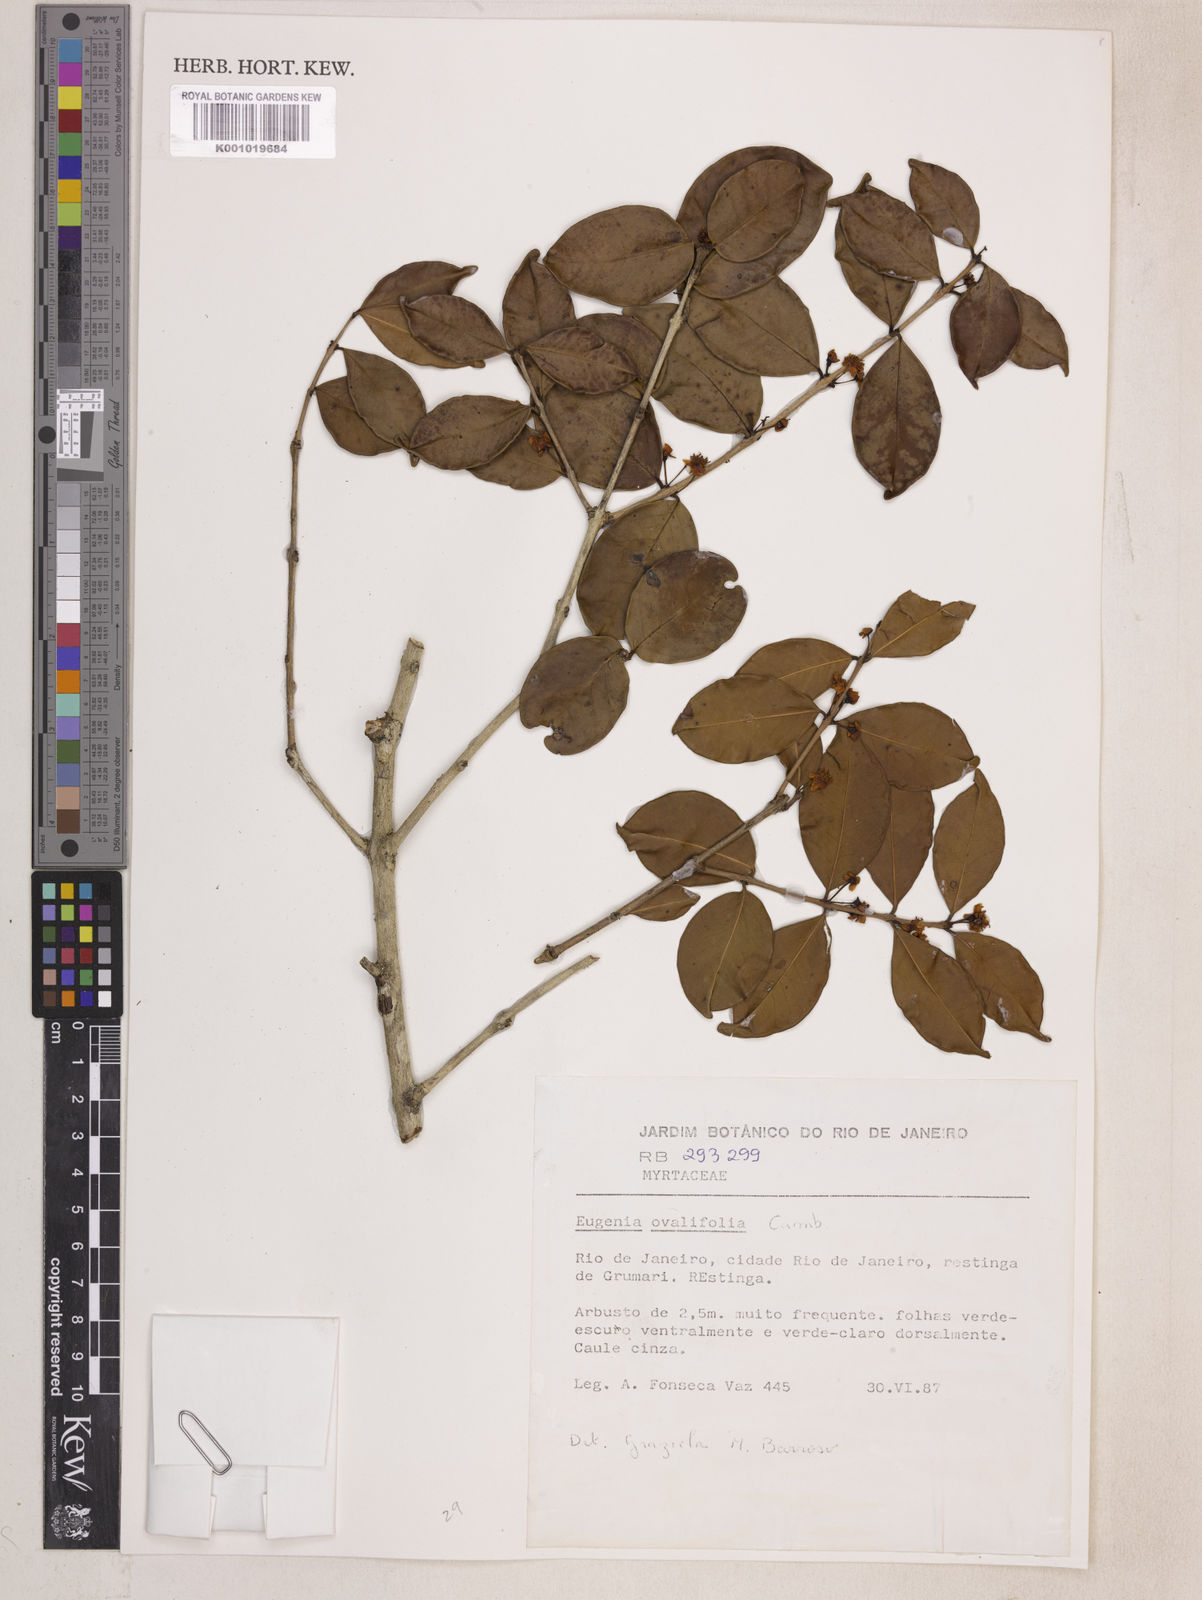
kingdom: Plantae
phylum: Tracheophyta
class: Magnoliopsida
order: Myrtales
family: Myrtaceae
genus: Eugenia
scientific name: Eugenia punicifolia
